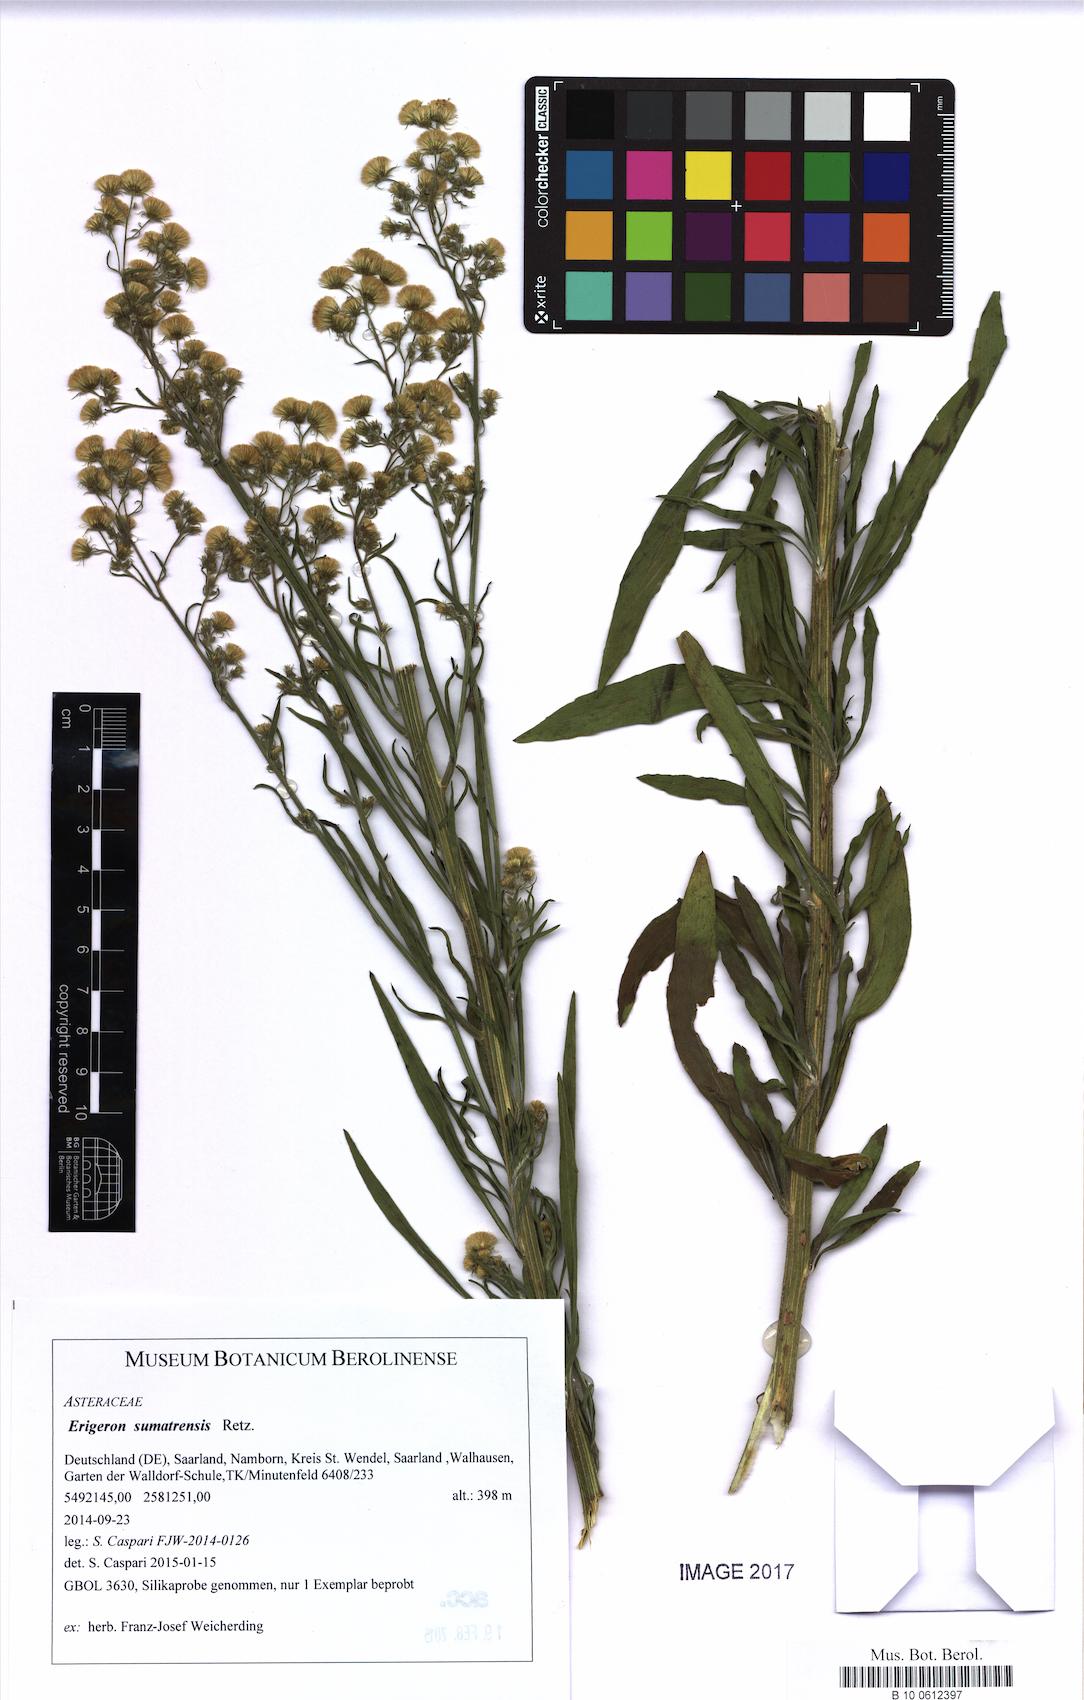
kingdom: Plantae
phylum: Tracheophyta
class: Magnoliopsida
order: Asterales
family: Asteraceae
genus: Erigeron
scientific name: Erigeron sumatrensis
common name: Daisy
